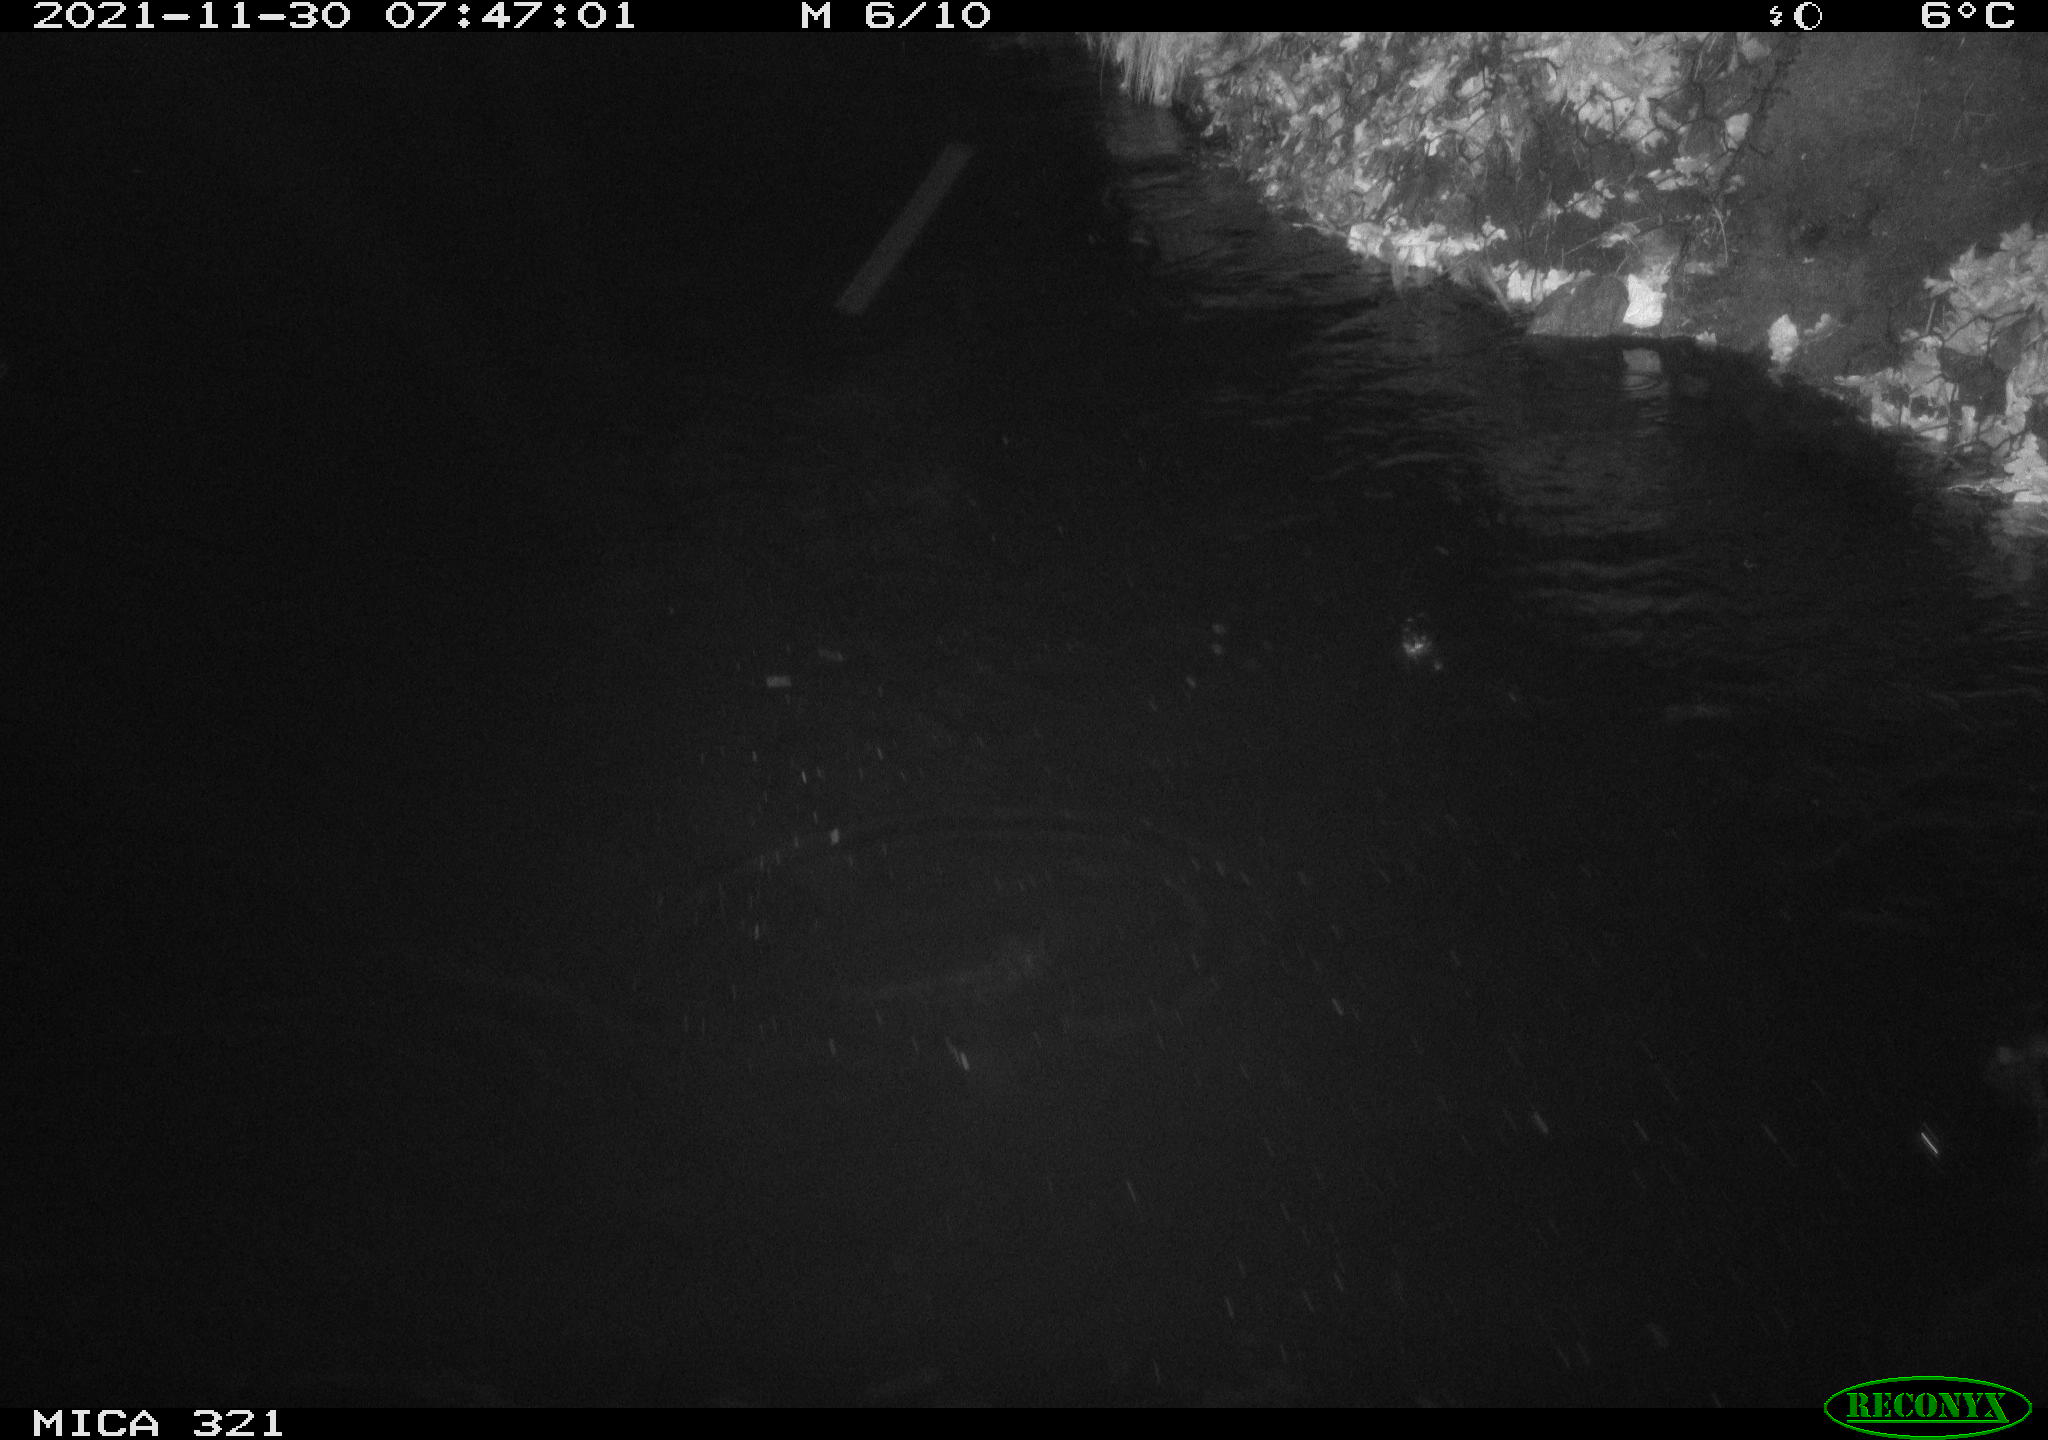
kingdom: Animalia
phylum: Chordata
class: Aves
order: Anseriformes
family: Anatidae
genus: Anas
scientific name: Anas platyrhynchos
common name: Mallard
